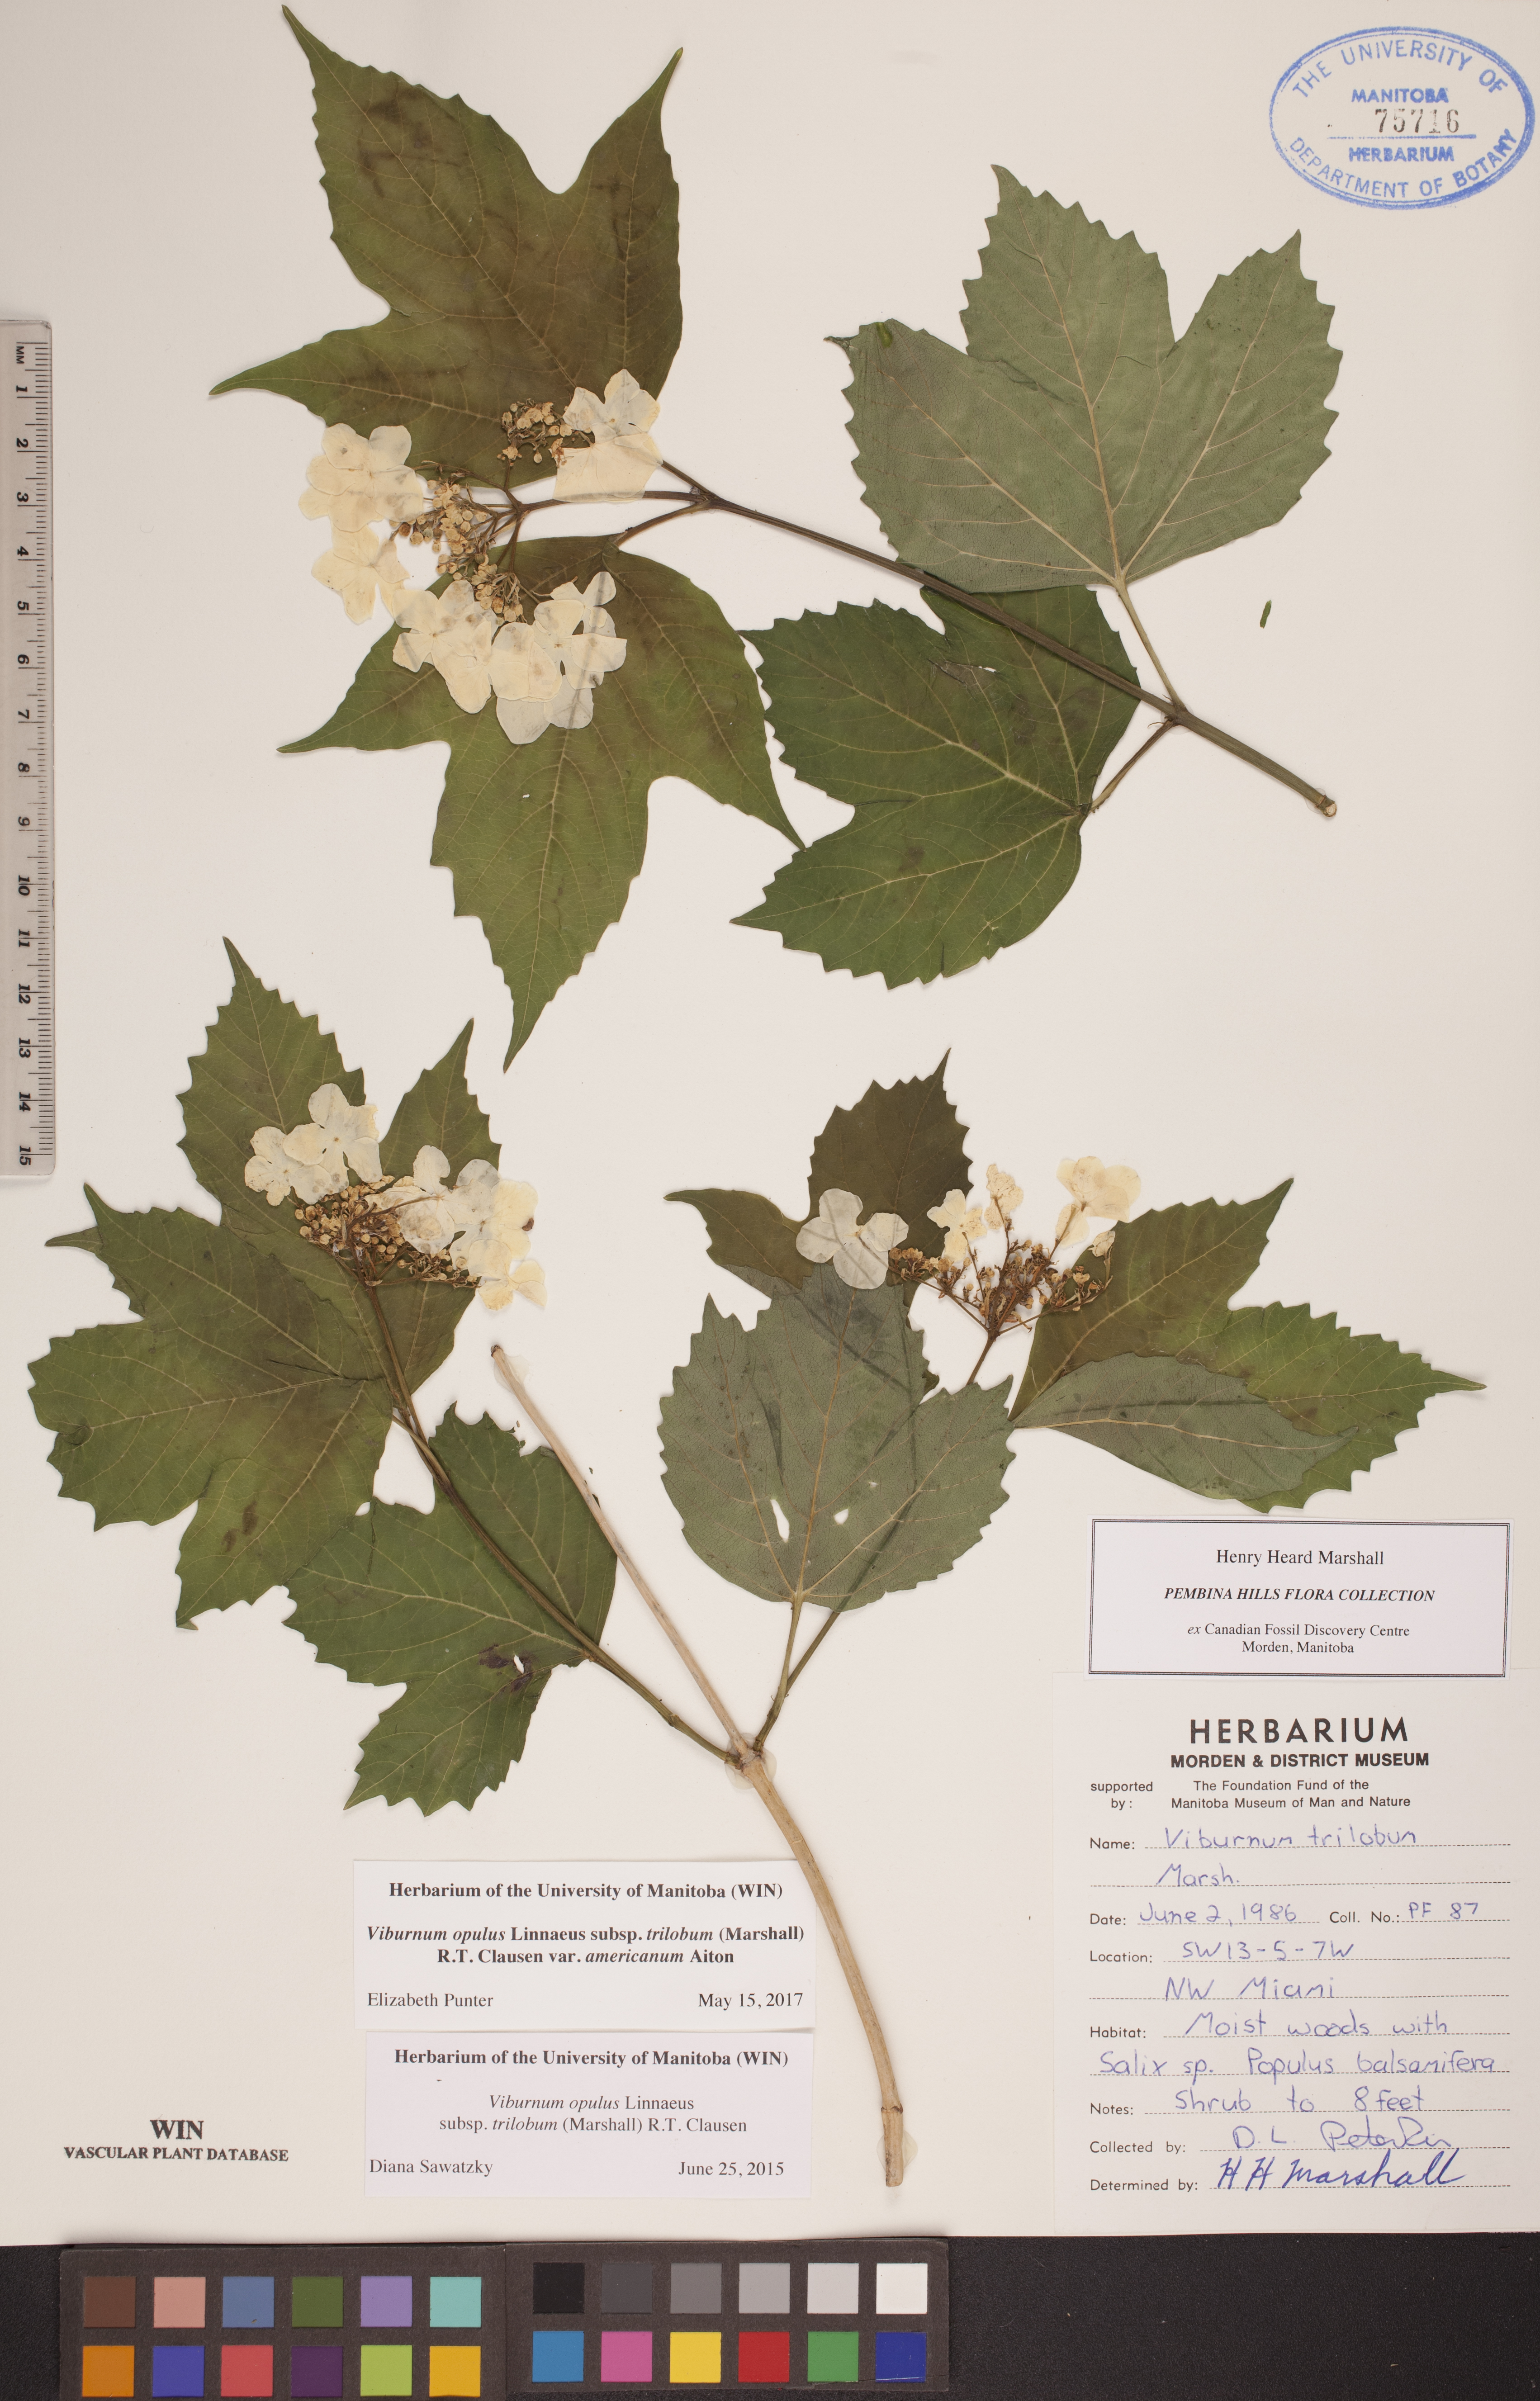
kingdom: Plantae
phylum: Tracheophyta
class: Magnoliopsida
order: Dipsacales
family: Viburnaceae
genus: Viburnum
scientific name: Viburnum trilobum
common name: American cranberrybush
